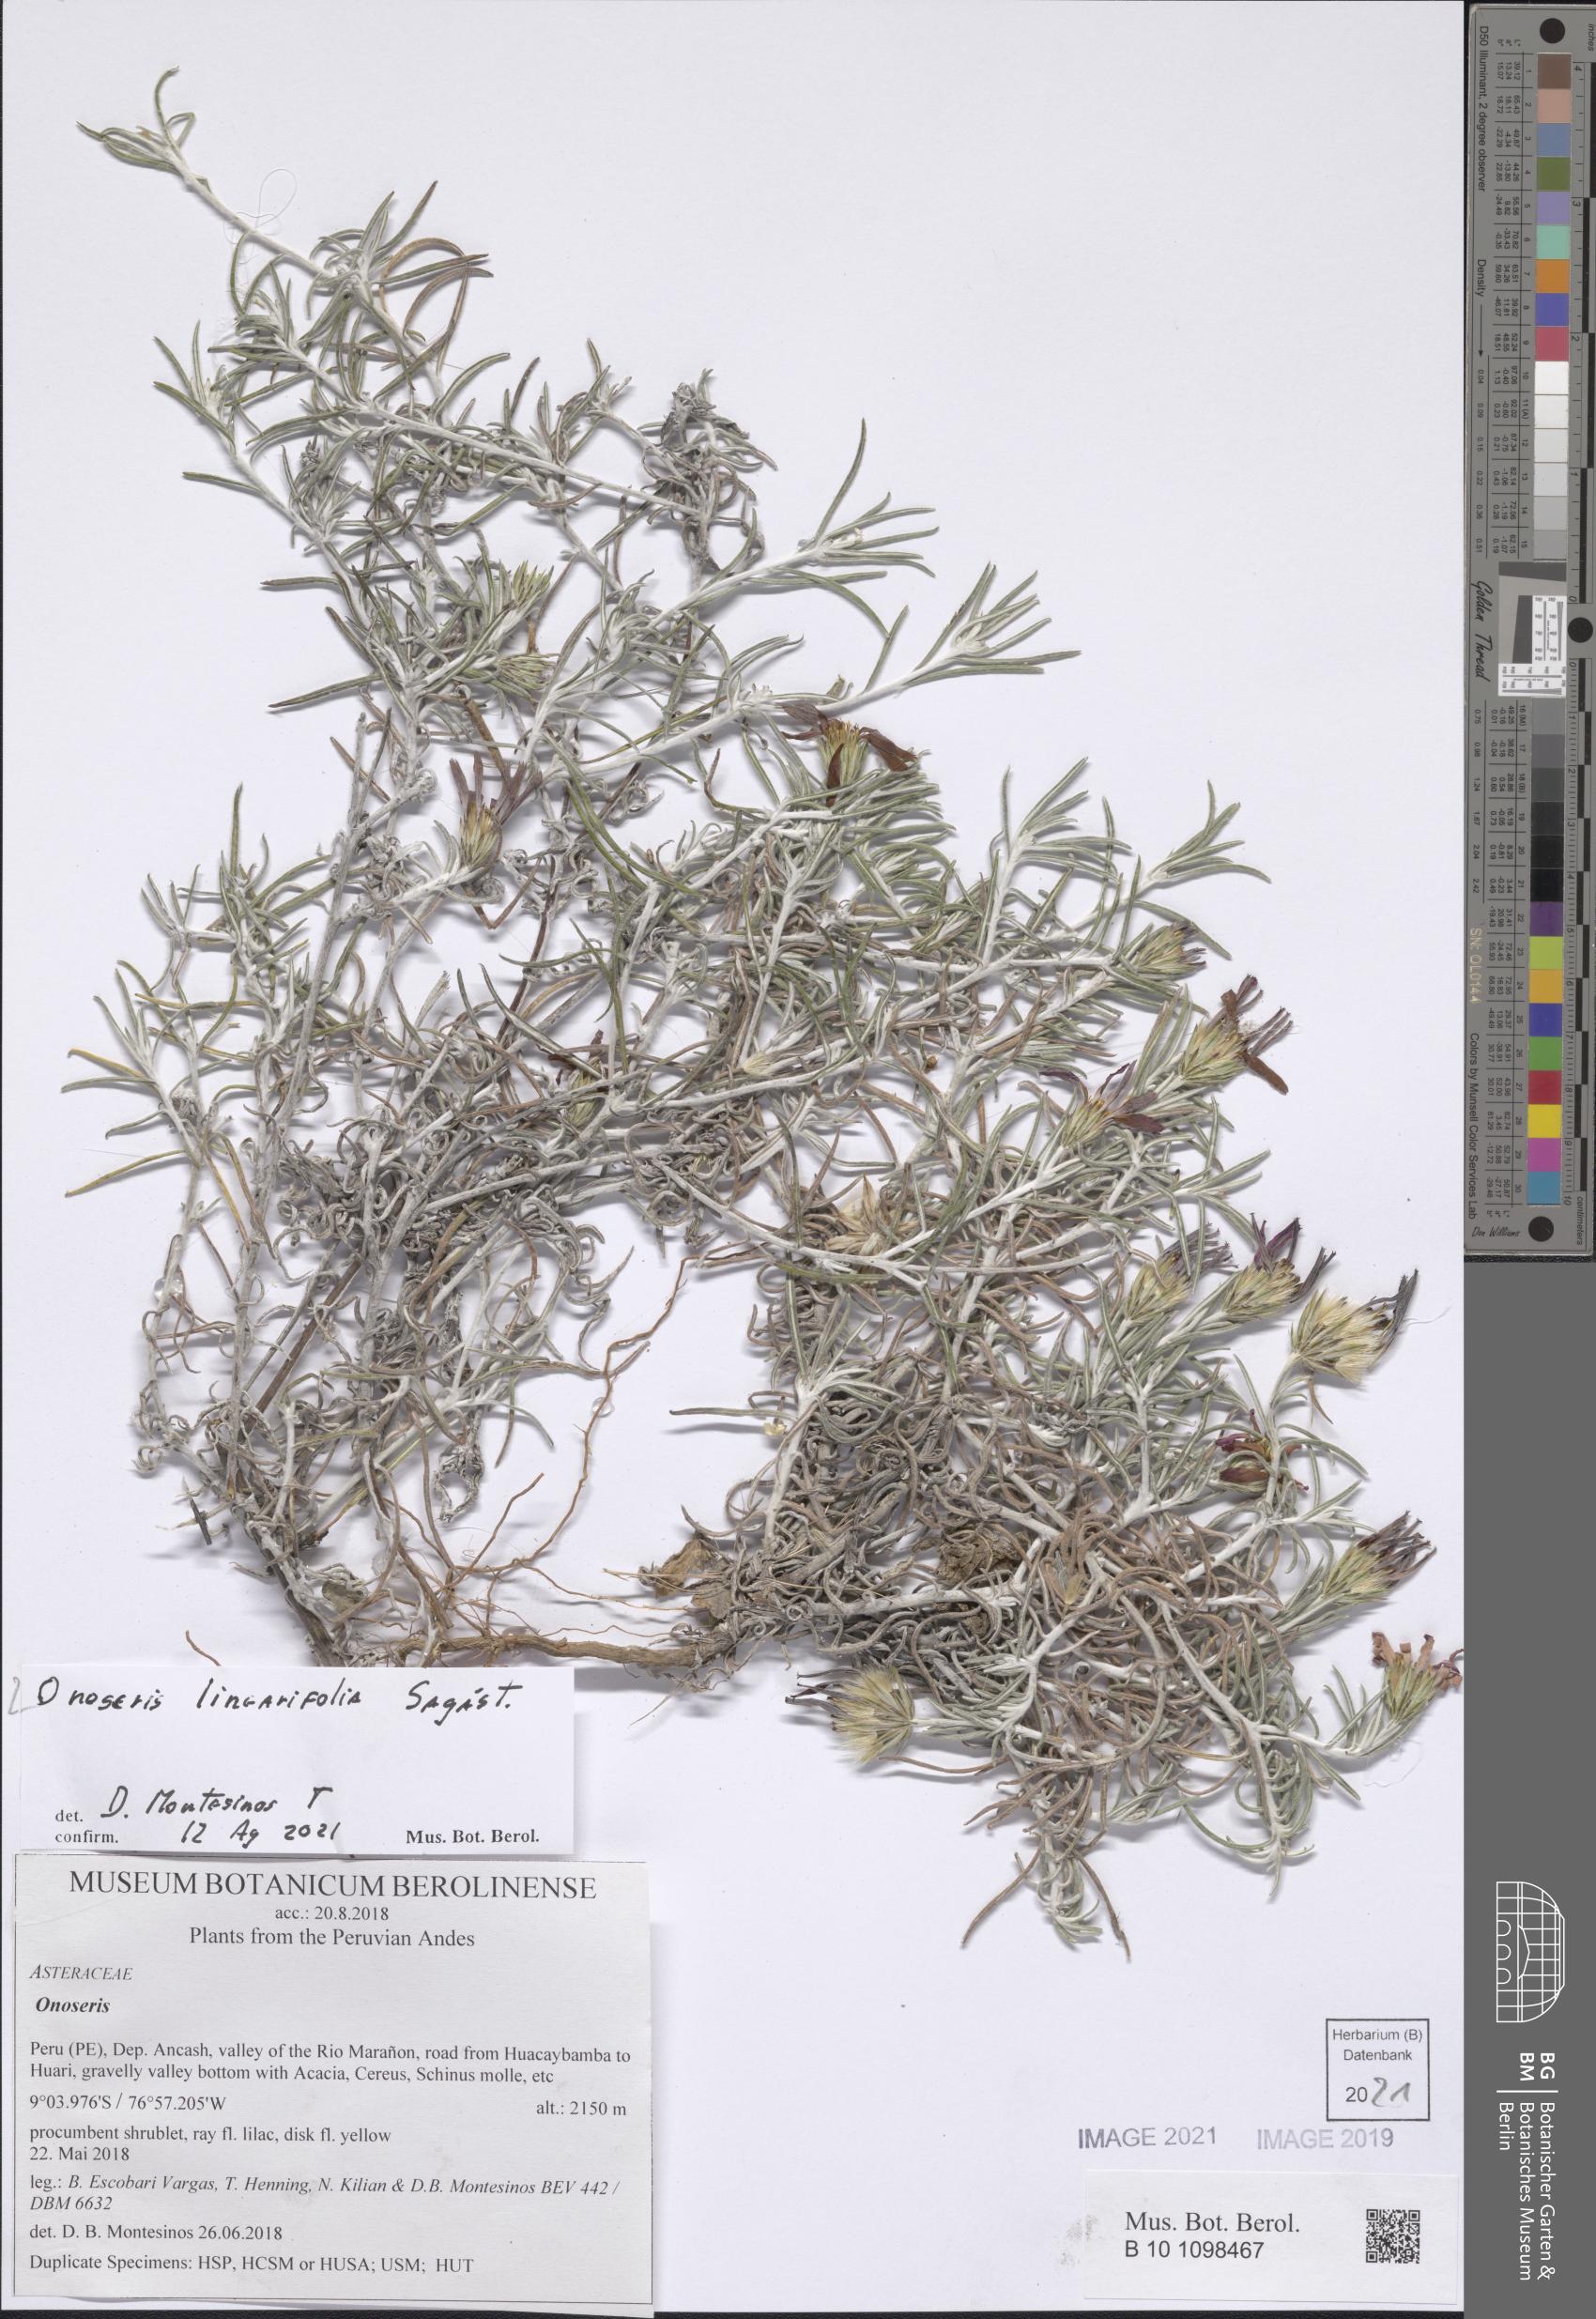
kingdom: Plantae
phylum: Tracheophyta
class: Magnoliopsida
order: Asterales
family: Asteraceae
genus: Onoseris
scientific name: Onoseris linearifolia
